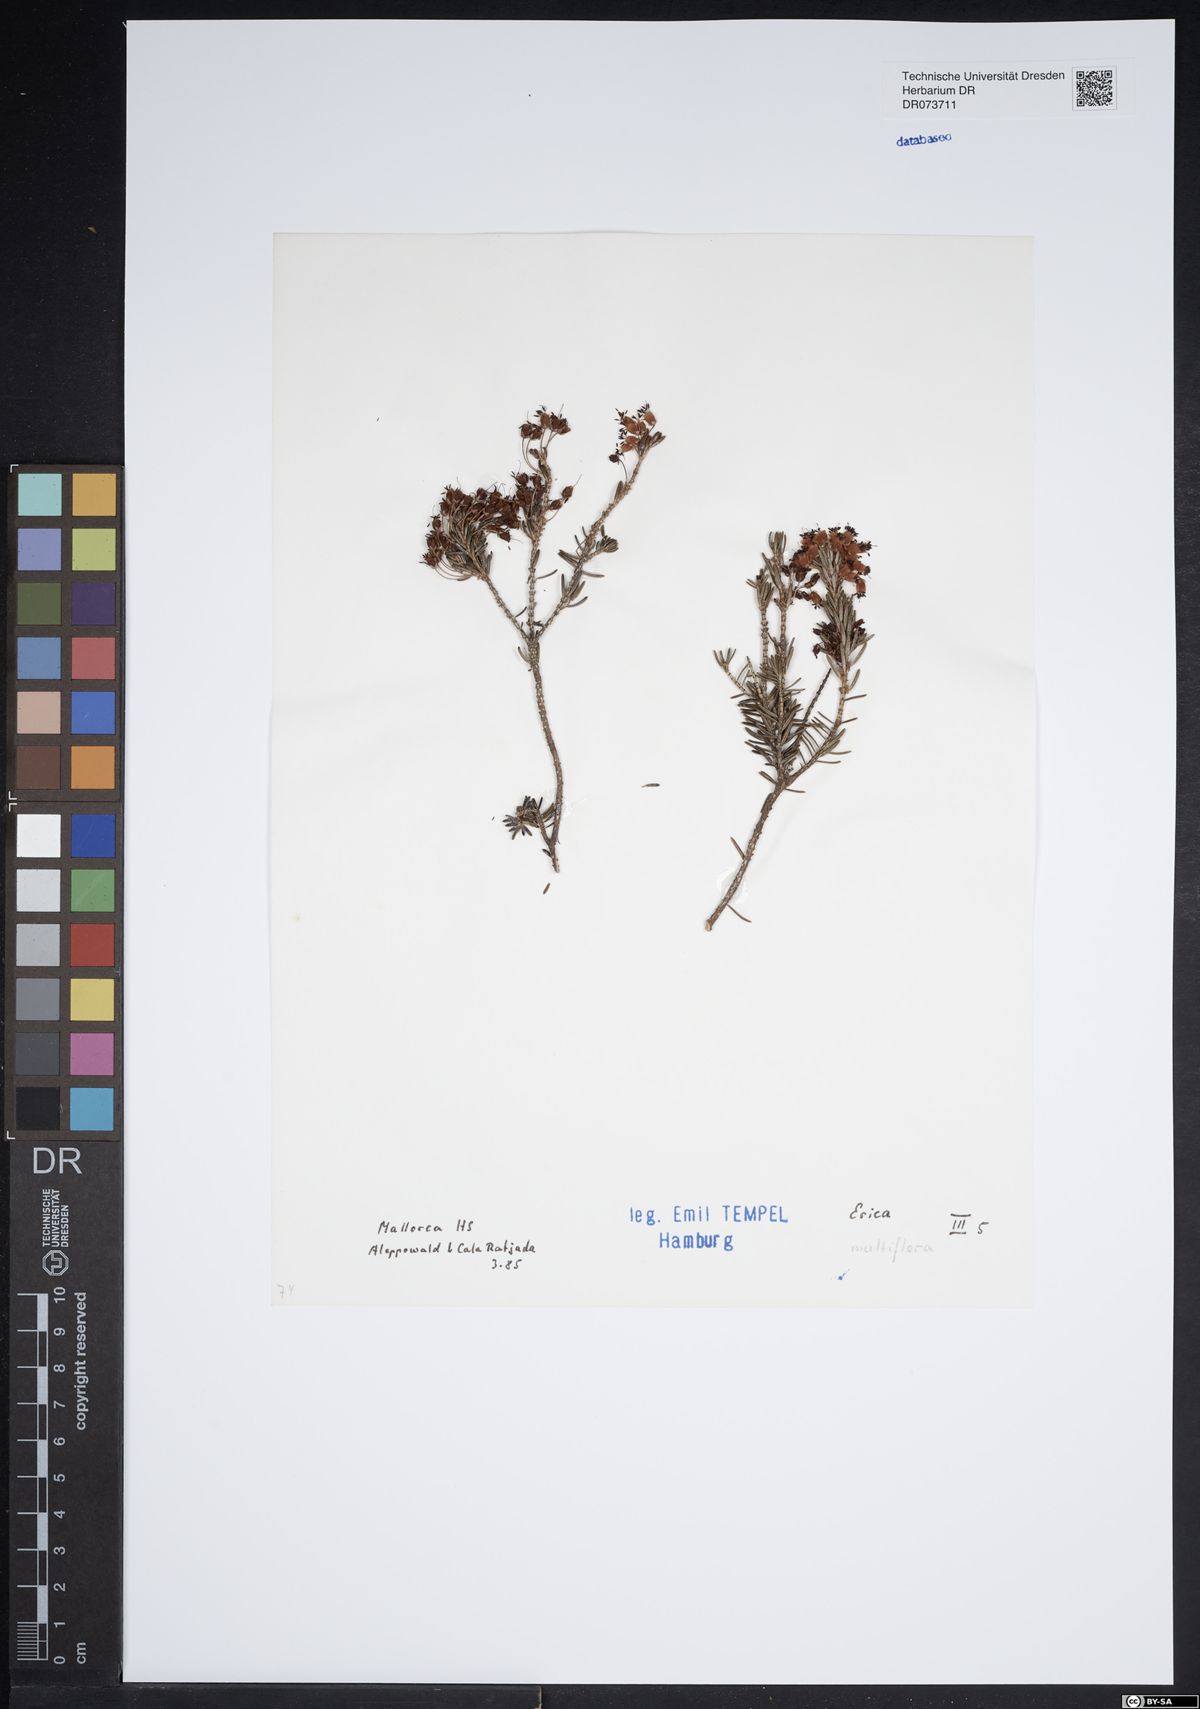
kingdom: Plantae
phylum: Tracheophyta
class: Magnoliopsida
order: Ericales
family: Ericaceae
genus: Erica
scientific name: Erica multiflora
